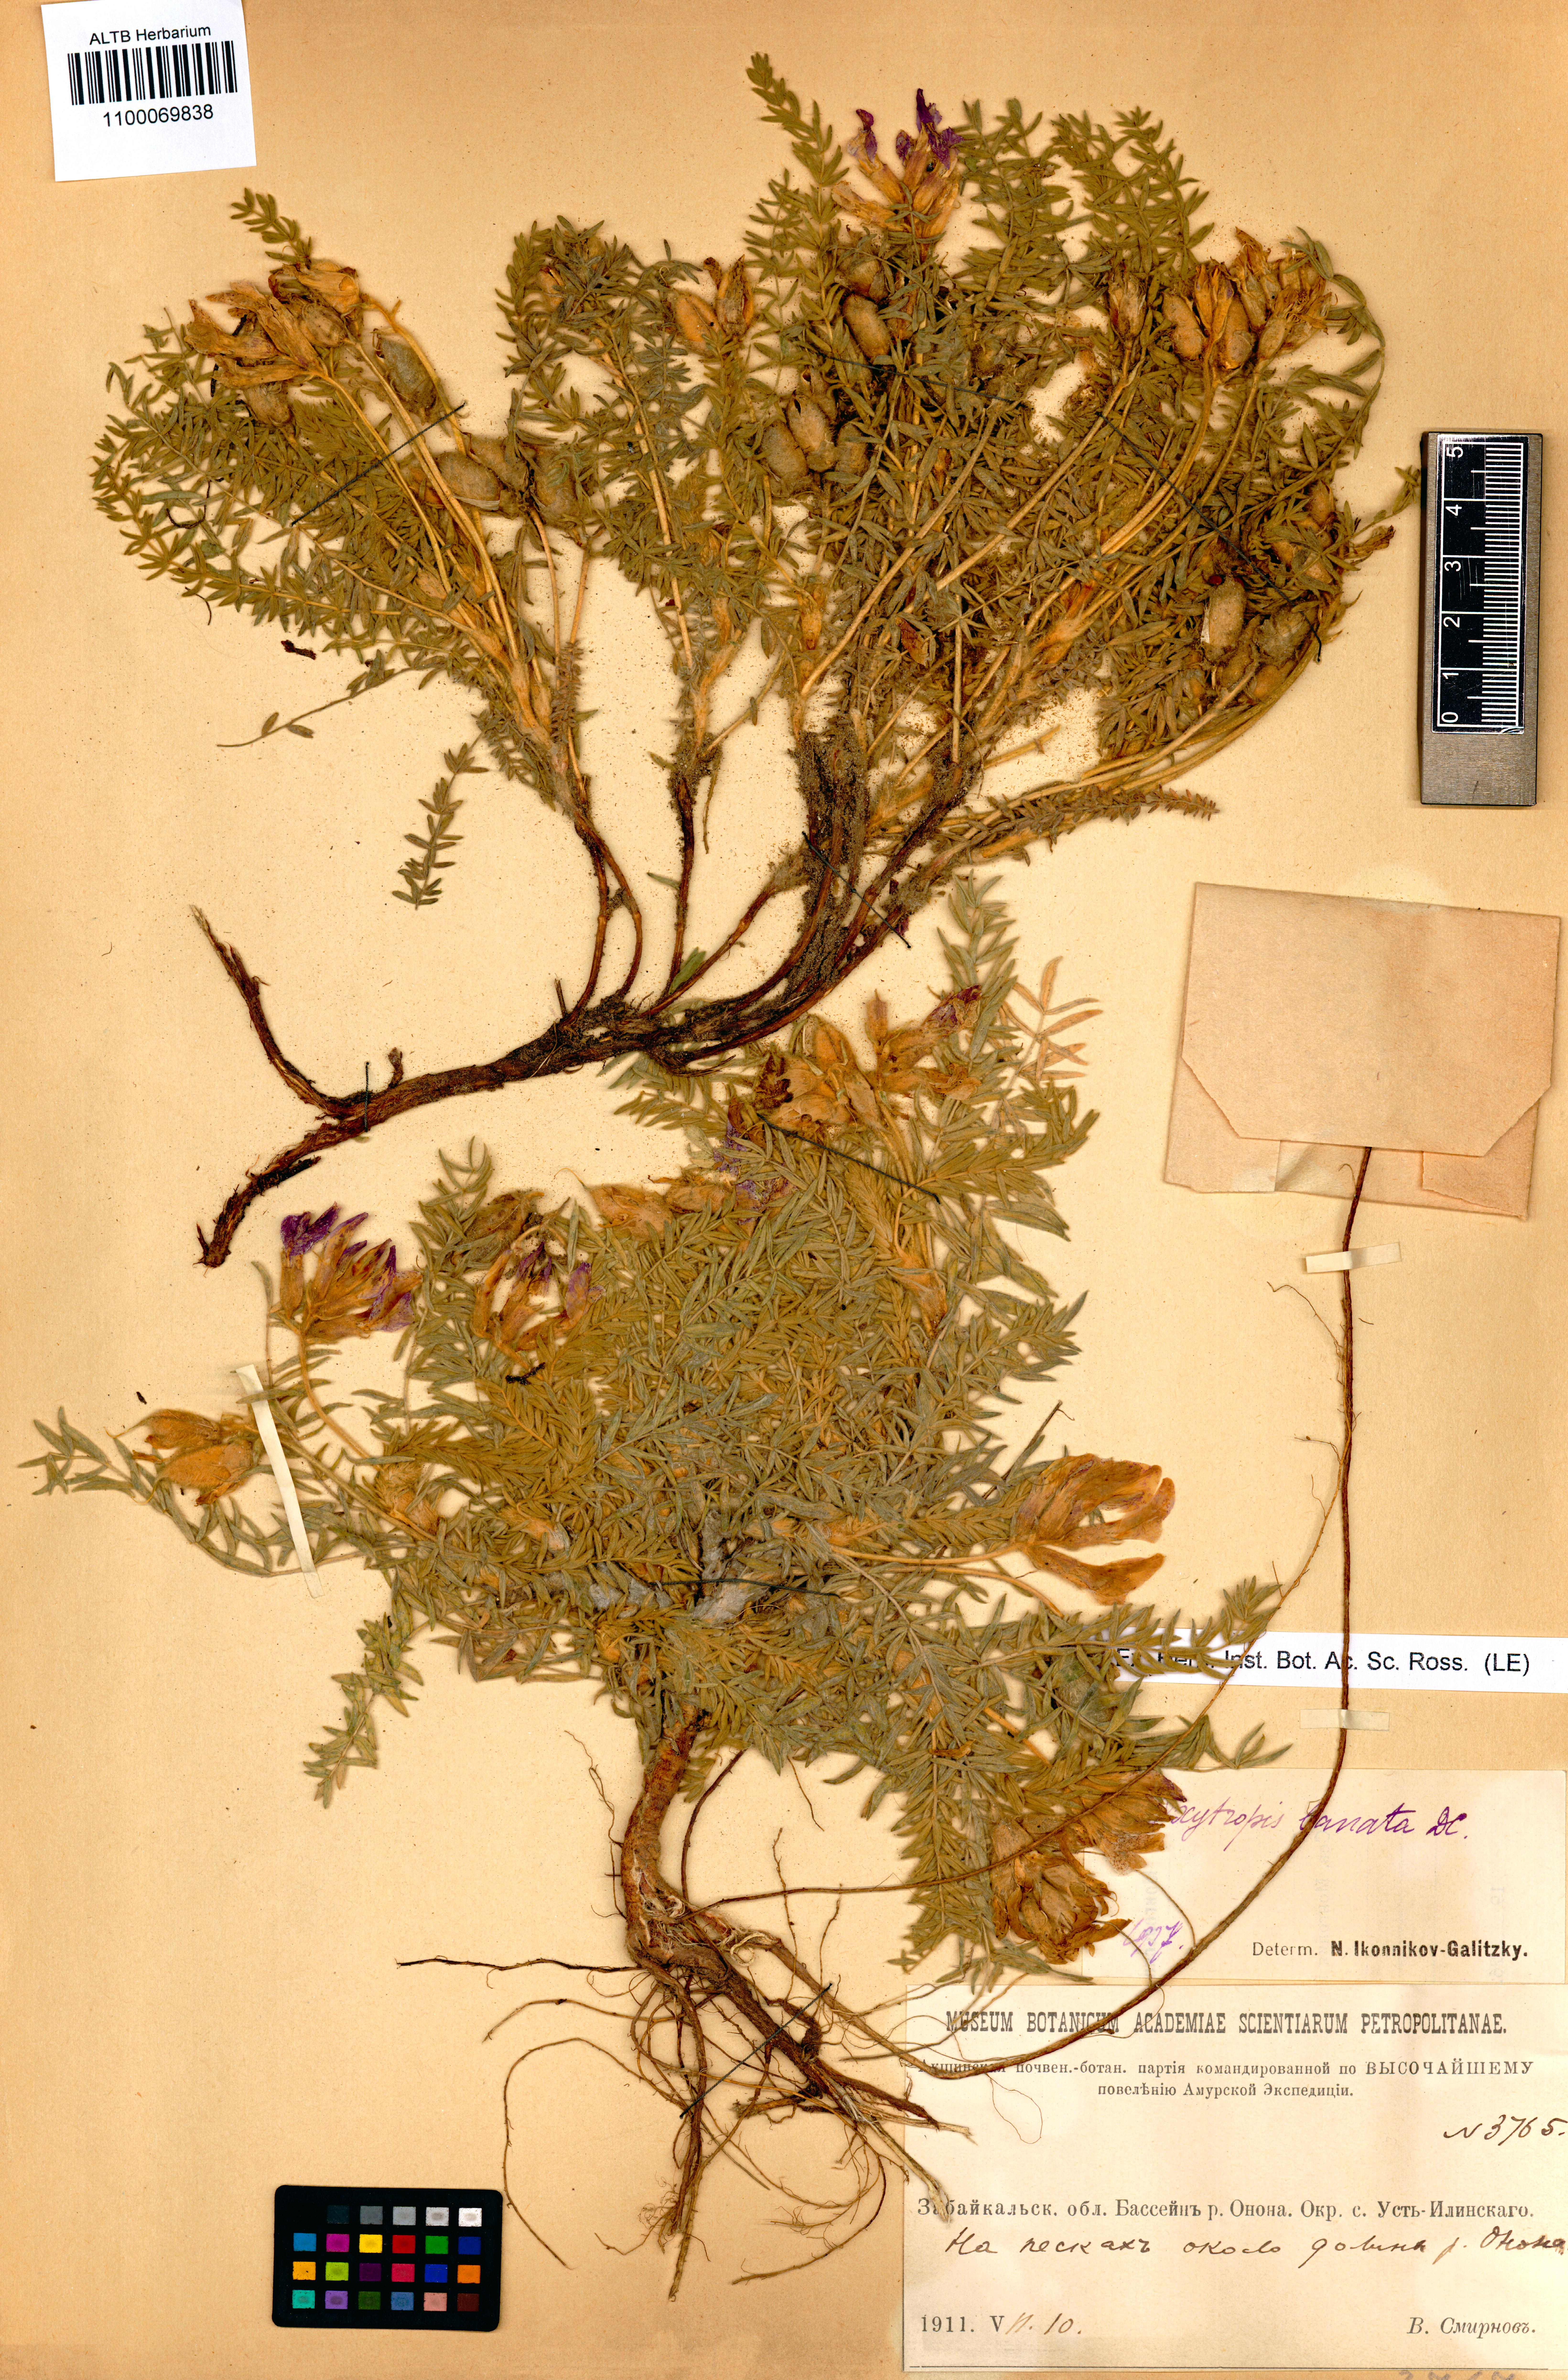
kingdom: Plantae
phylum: Tracheophyta
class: Magnoliopsida
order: Fabales
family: Fabaceae
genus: Oxytropis
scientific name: Oxytropis lanata
